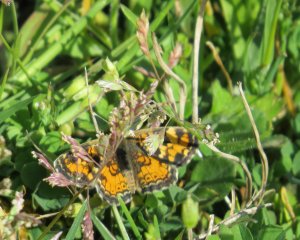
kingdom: Animalia
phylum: Arthropoda
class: Insecta
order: Lepidoptera
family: Nymphalidae
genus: Phyciodes
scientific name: Phyciodes phaon
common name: Phaon Crescent
